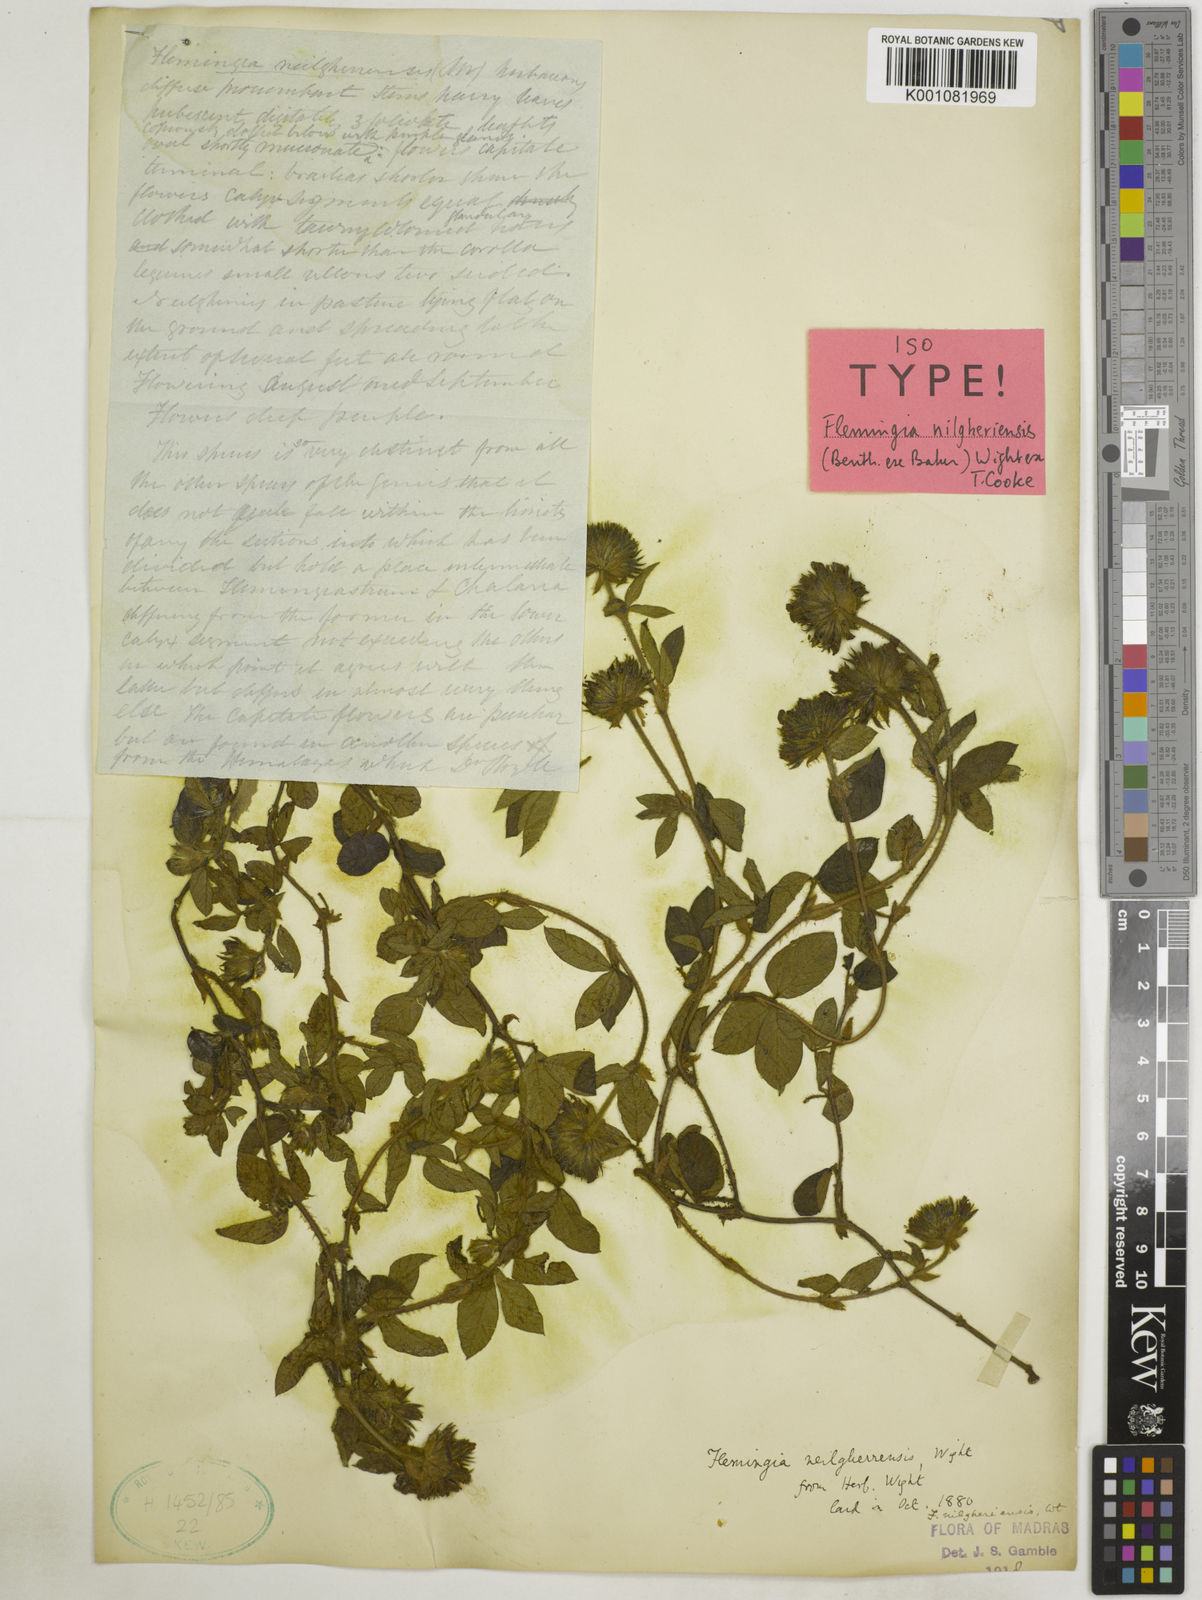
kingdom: Plantae
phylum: Tracheophyta
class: Magnoliopsida
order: Fabales
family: Fabaceae
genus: Flemingia
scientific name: Flemingia nilgheriensis
